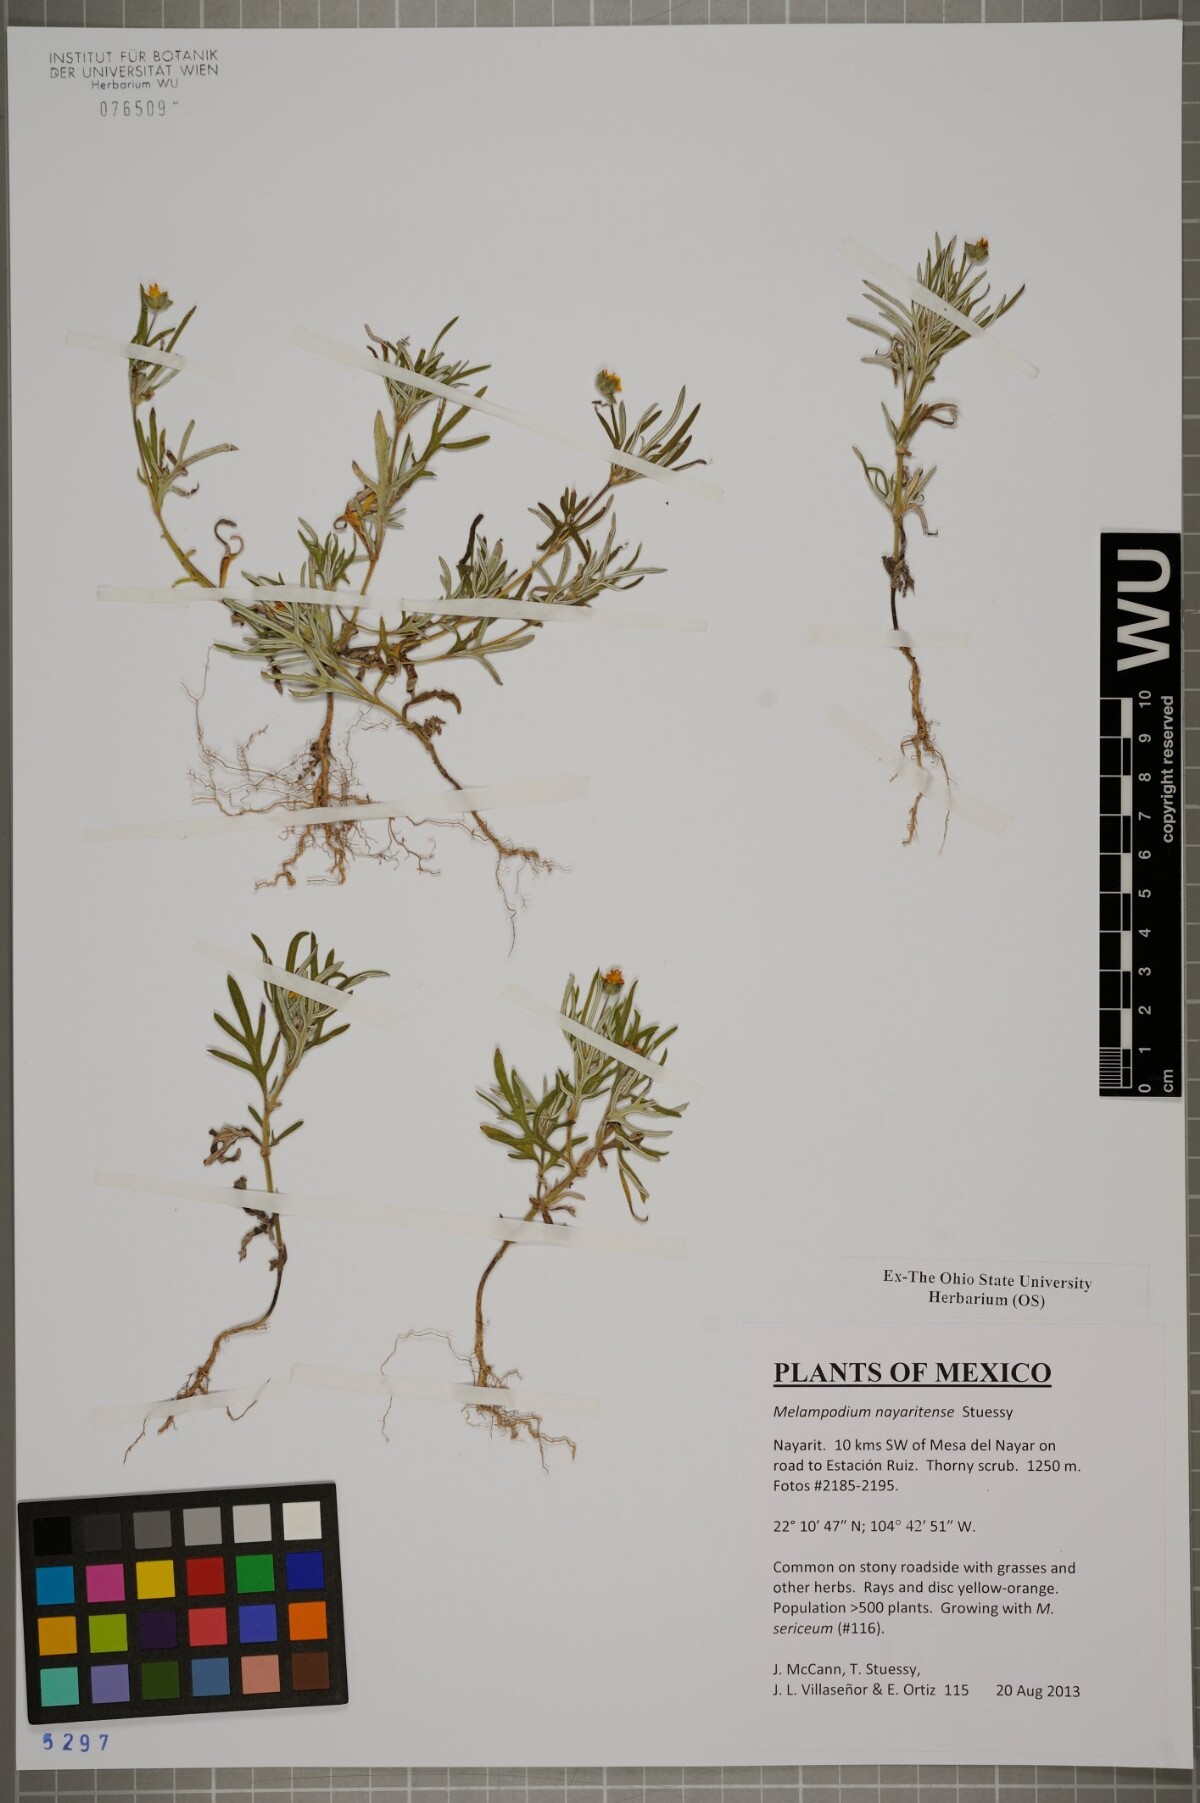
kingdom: Plantae
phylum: Tracheophyta
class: Magnoliopsida
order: Asterales
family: Asteraceae
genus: Melampodium
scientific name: Melampodium nayaritense
